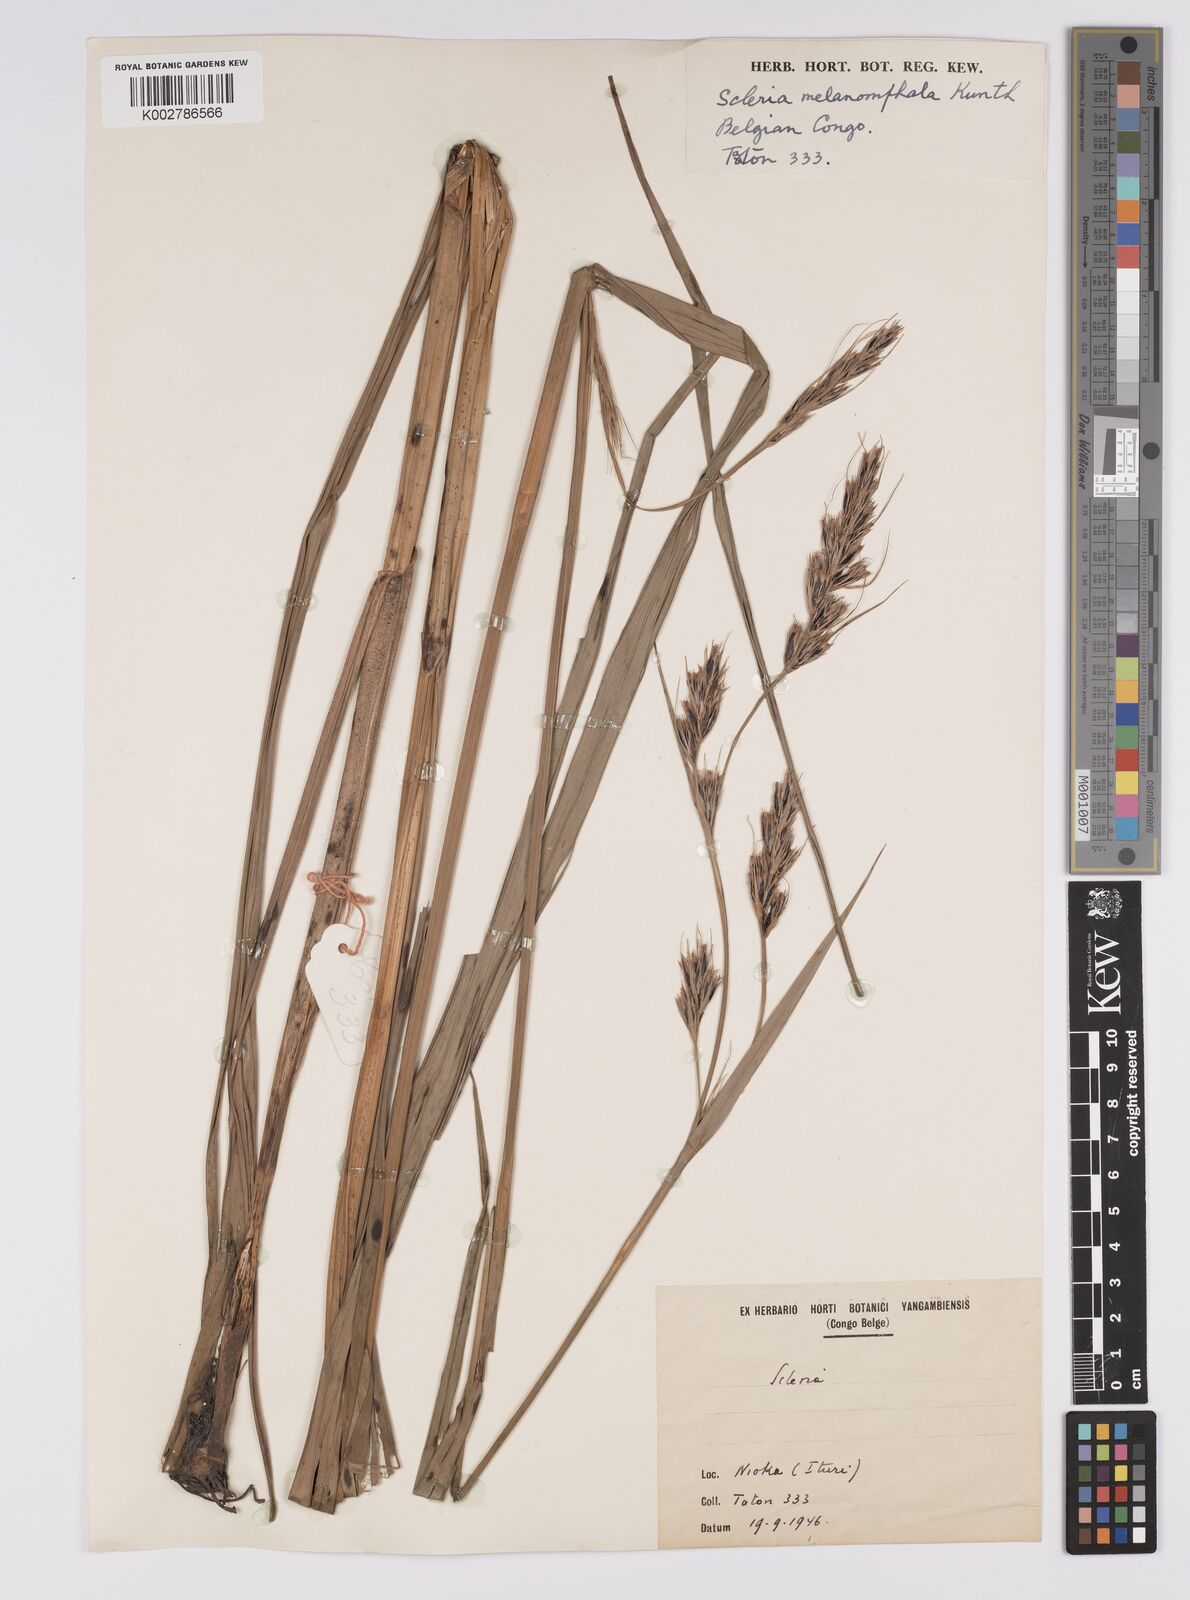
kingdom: Plantae
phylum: Tracheophyta
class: Liliopsida
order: Poales
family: Cyperaceae
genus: Scleria
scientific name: Scleria melanomphala
